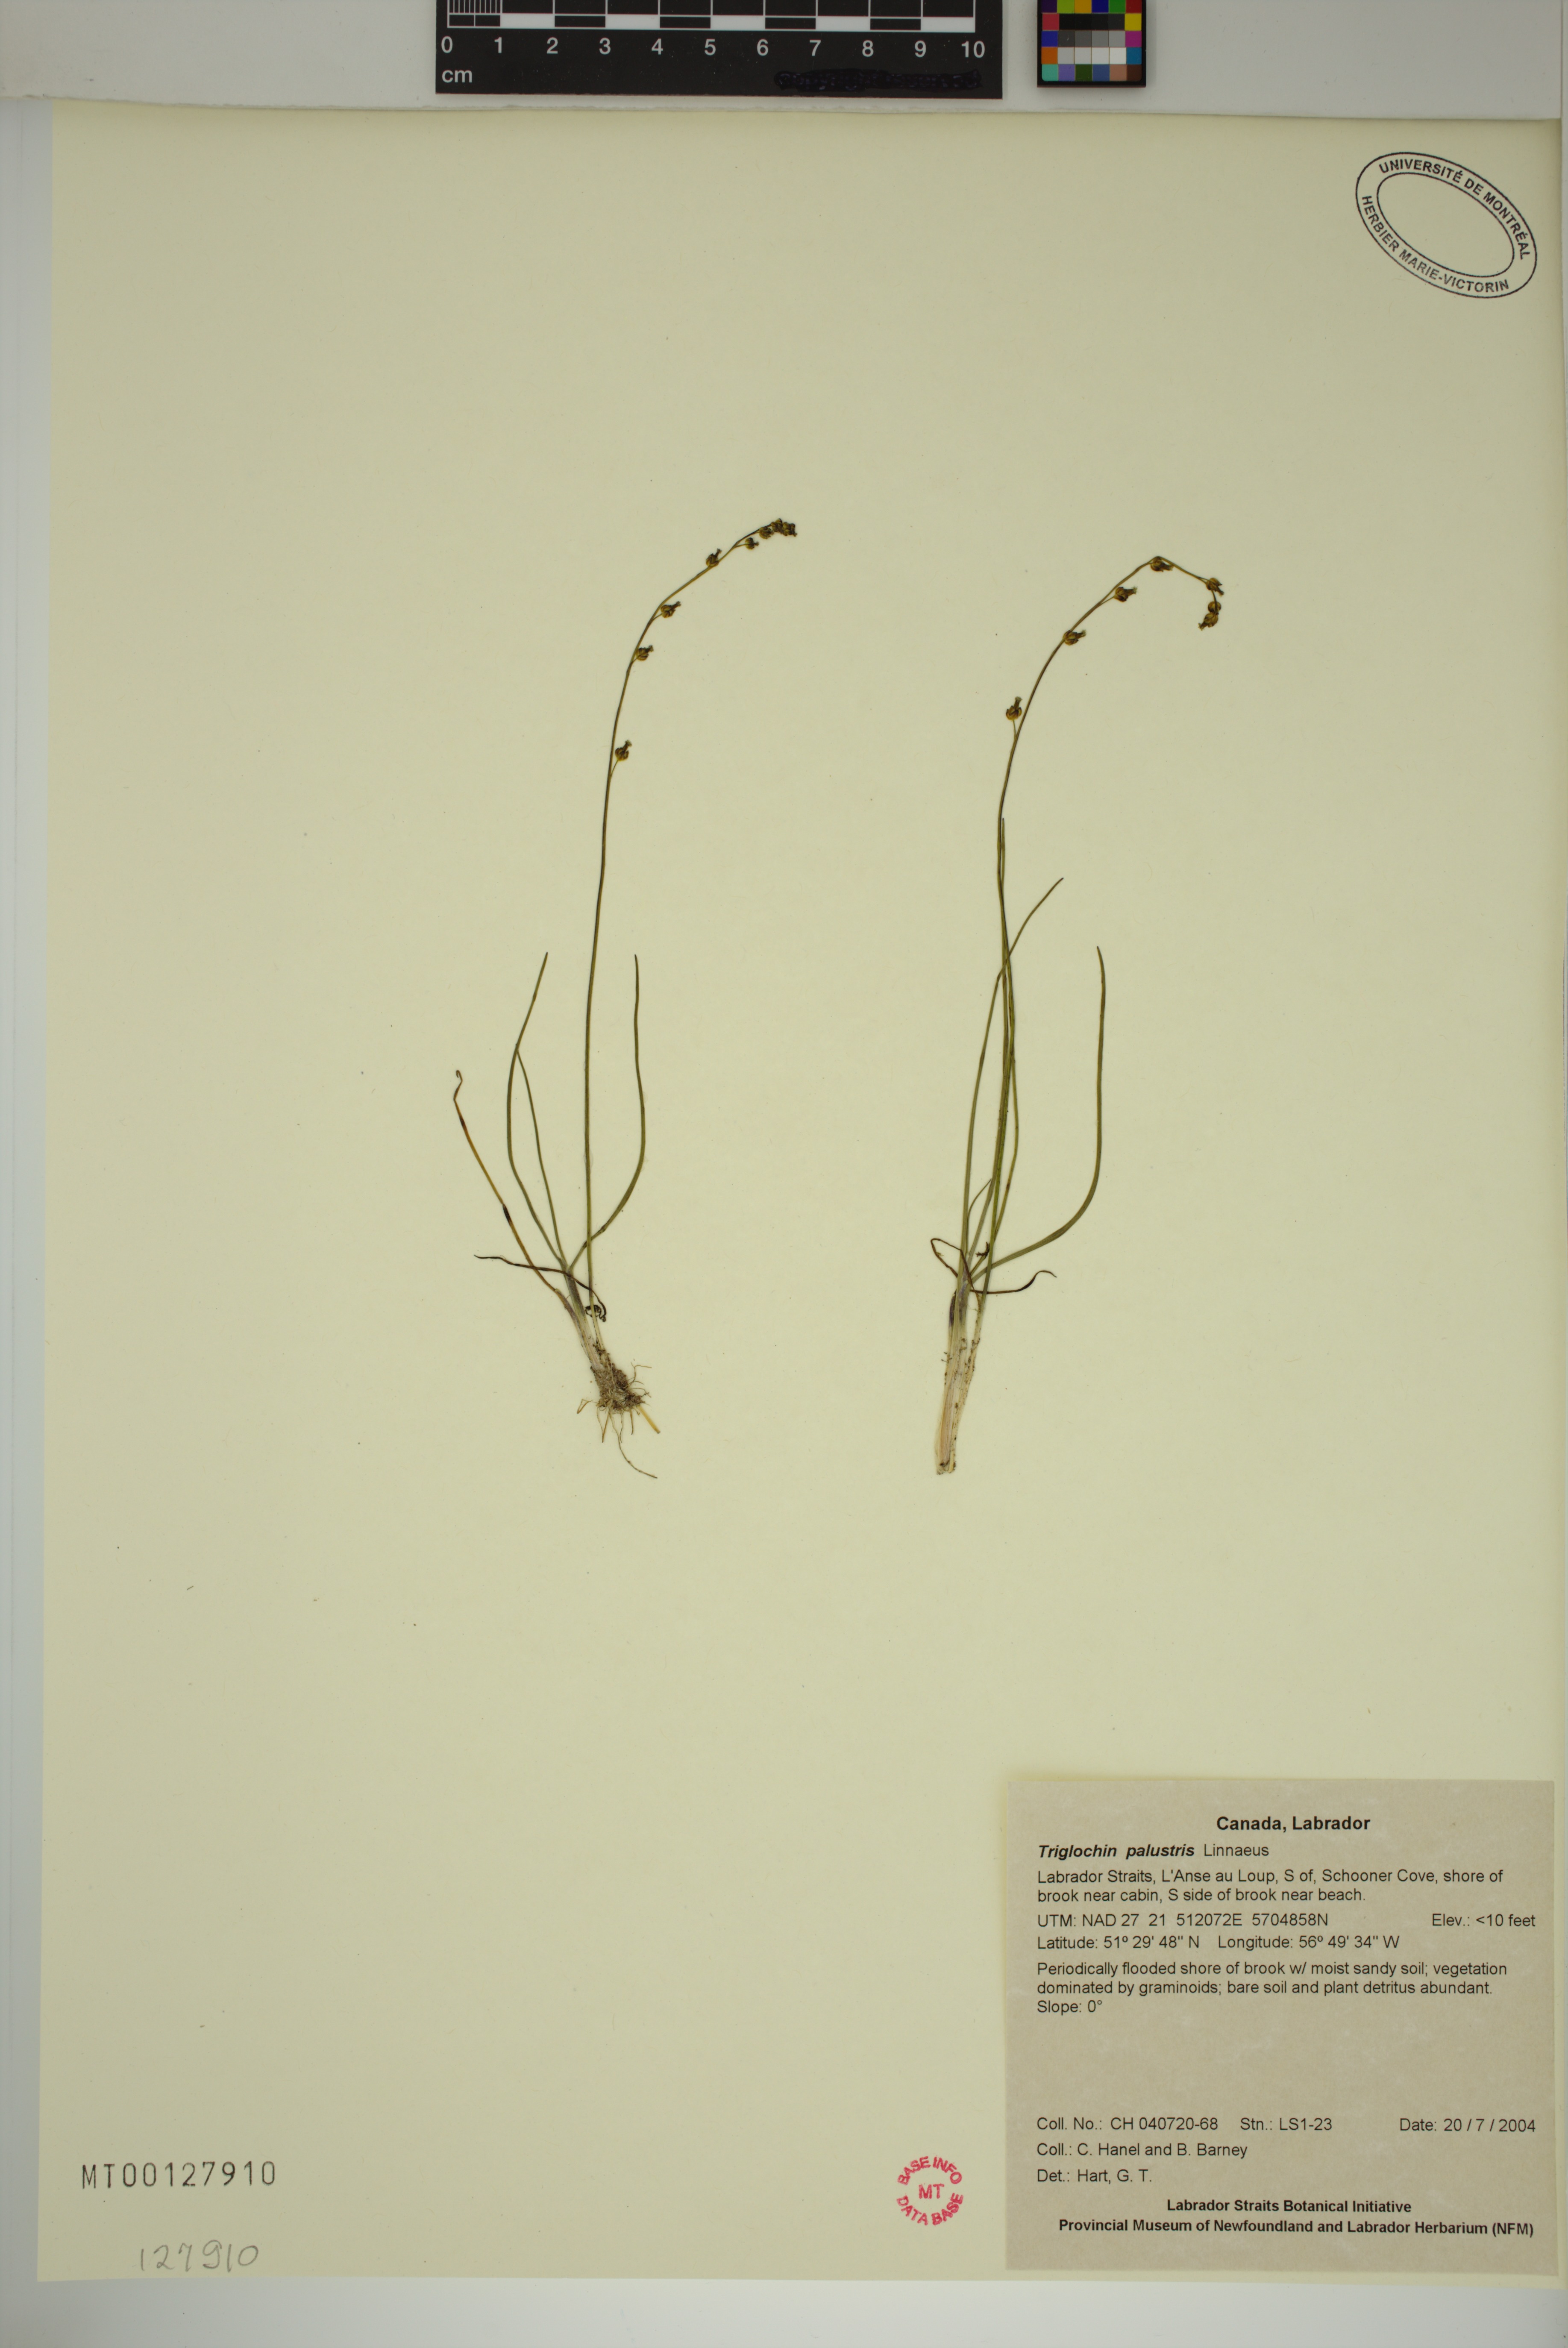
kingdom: Plantae
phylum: Tracheophyta
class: Liliopsida
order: Alismatales
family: Juncaginaceae
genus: Triglochin
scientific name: Triglochin palustris
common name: Marsh arrowgrass
